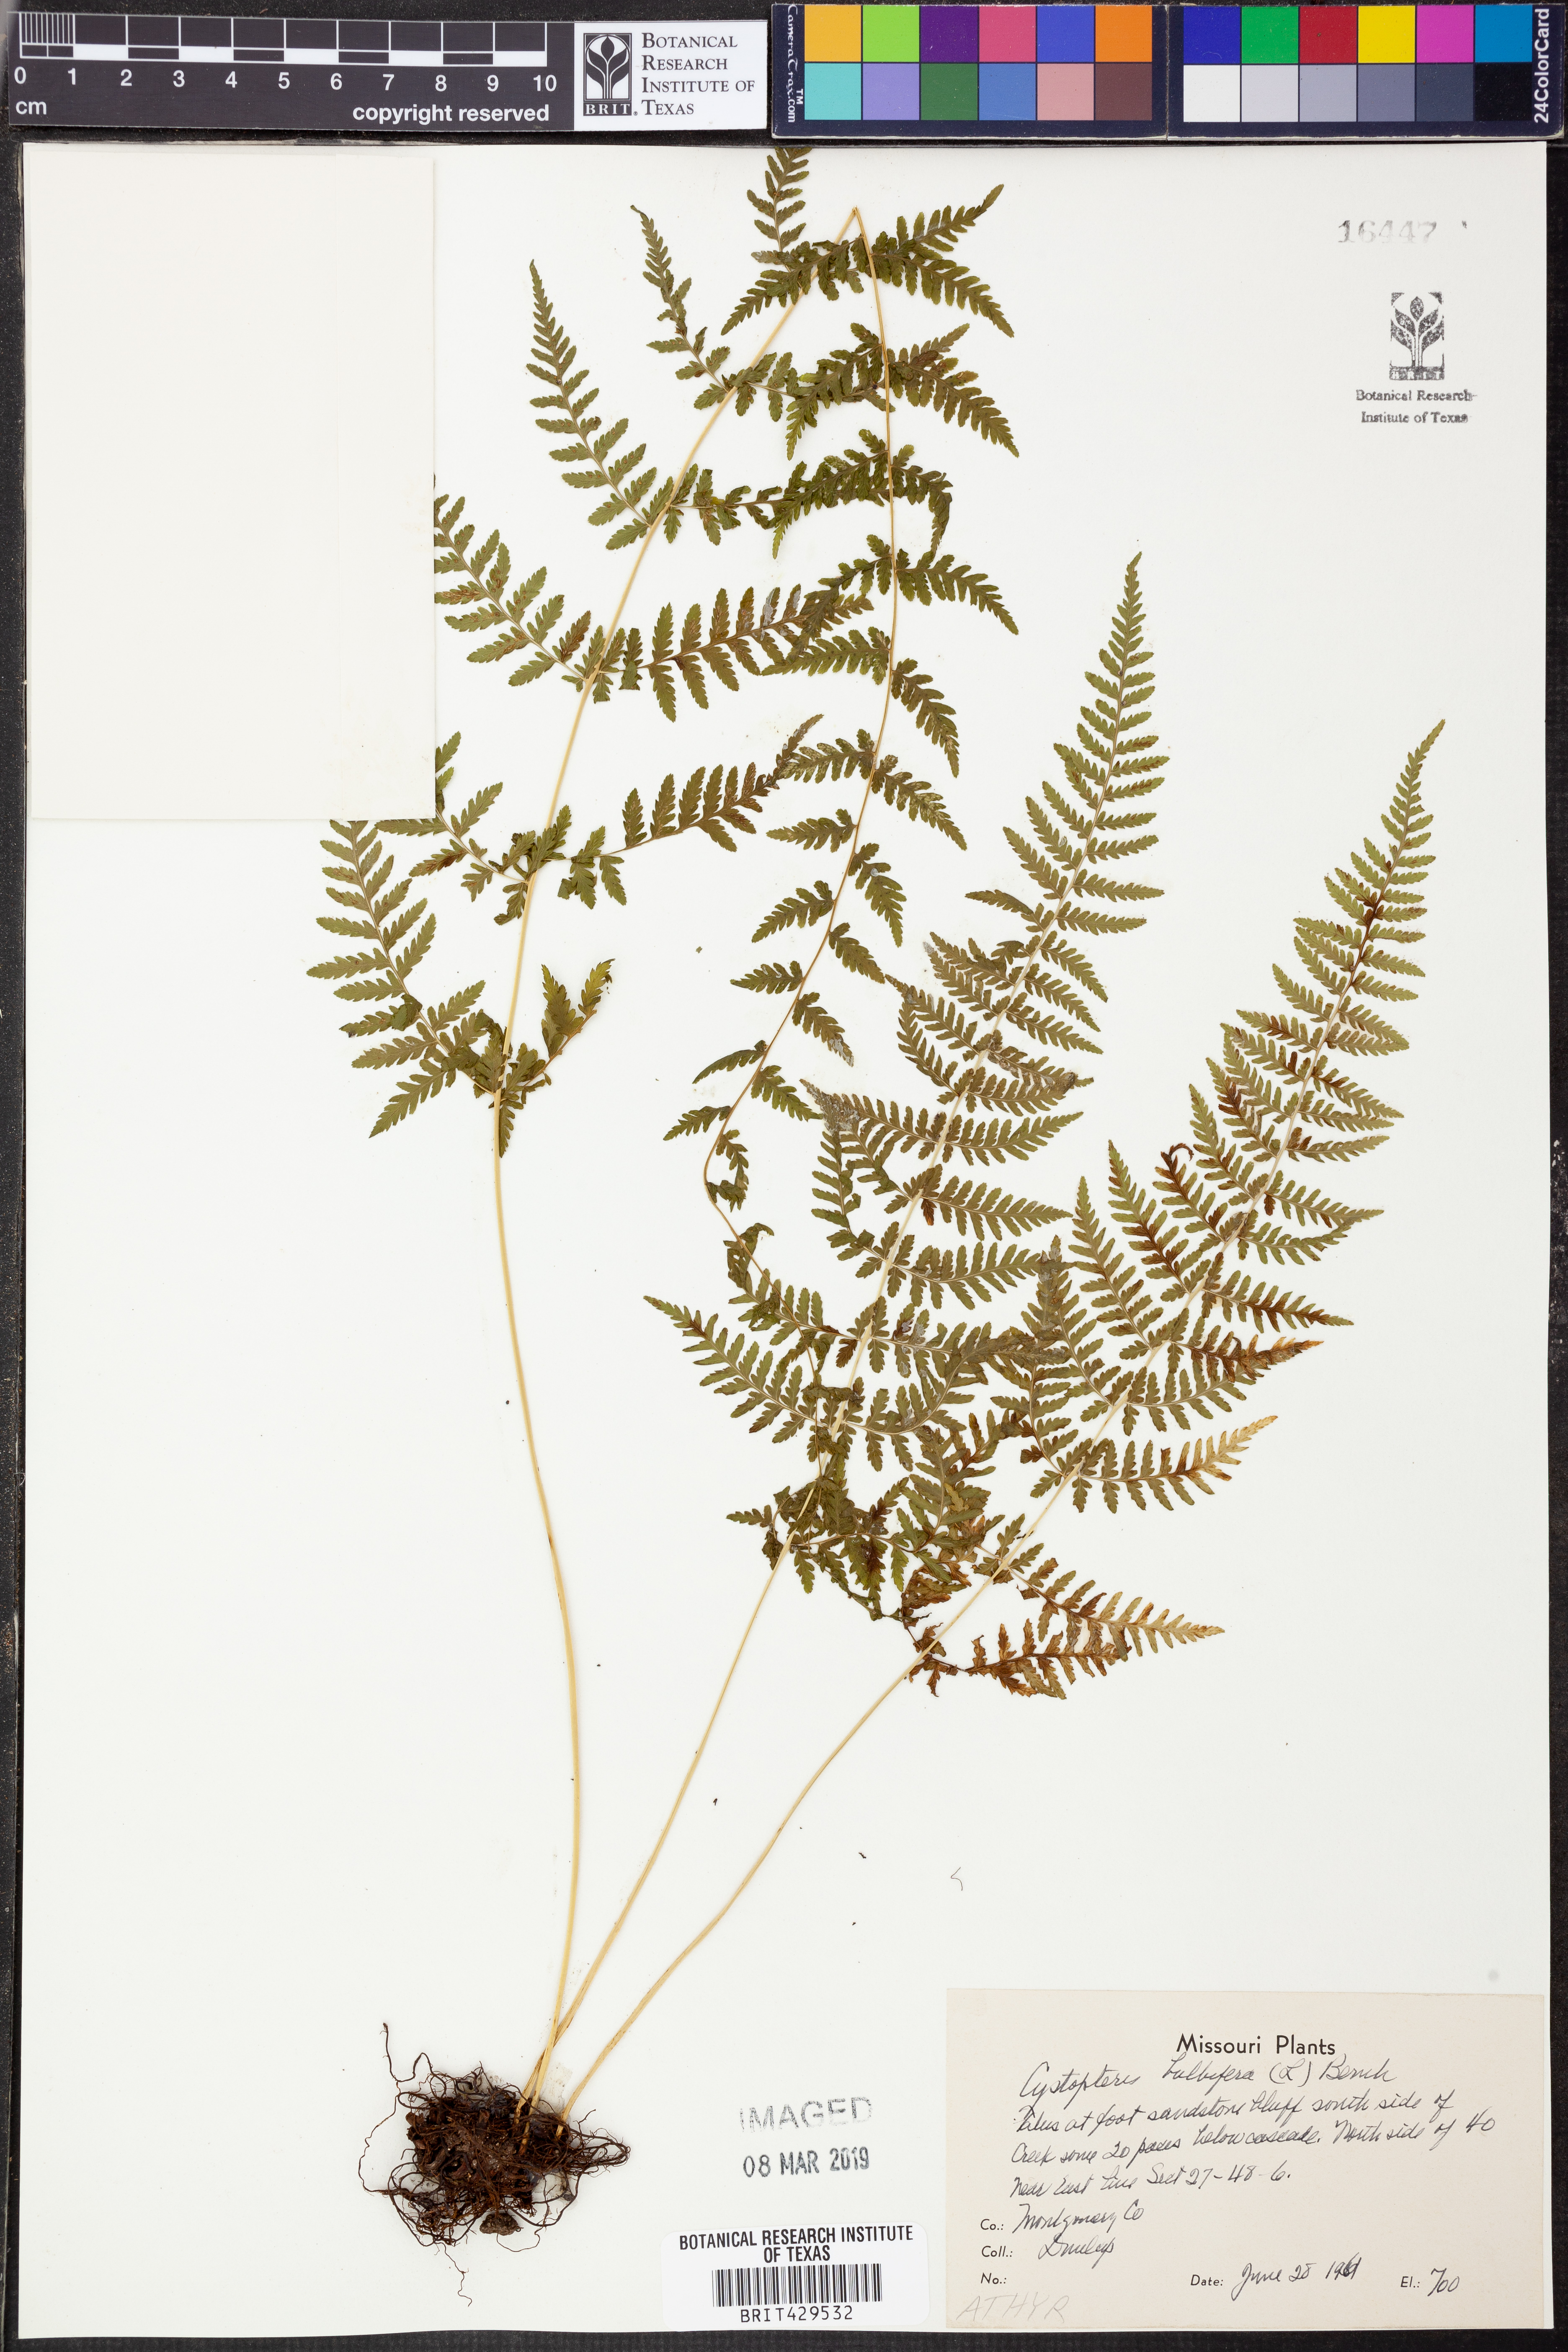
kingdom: Plantae
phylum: Tracheophyta
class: Polypodiopsida
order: Polypodiales
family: Cystopteridaceae
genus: Cystopteris
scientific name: Cystopteris bulbifera
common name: Bulblet bladder fern
